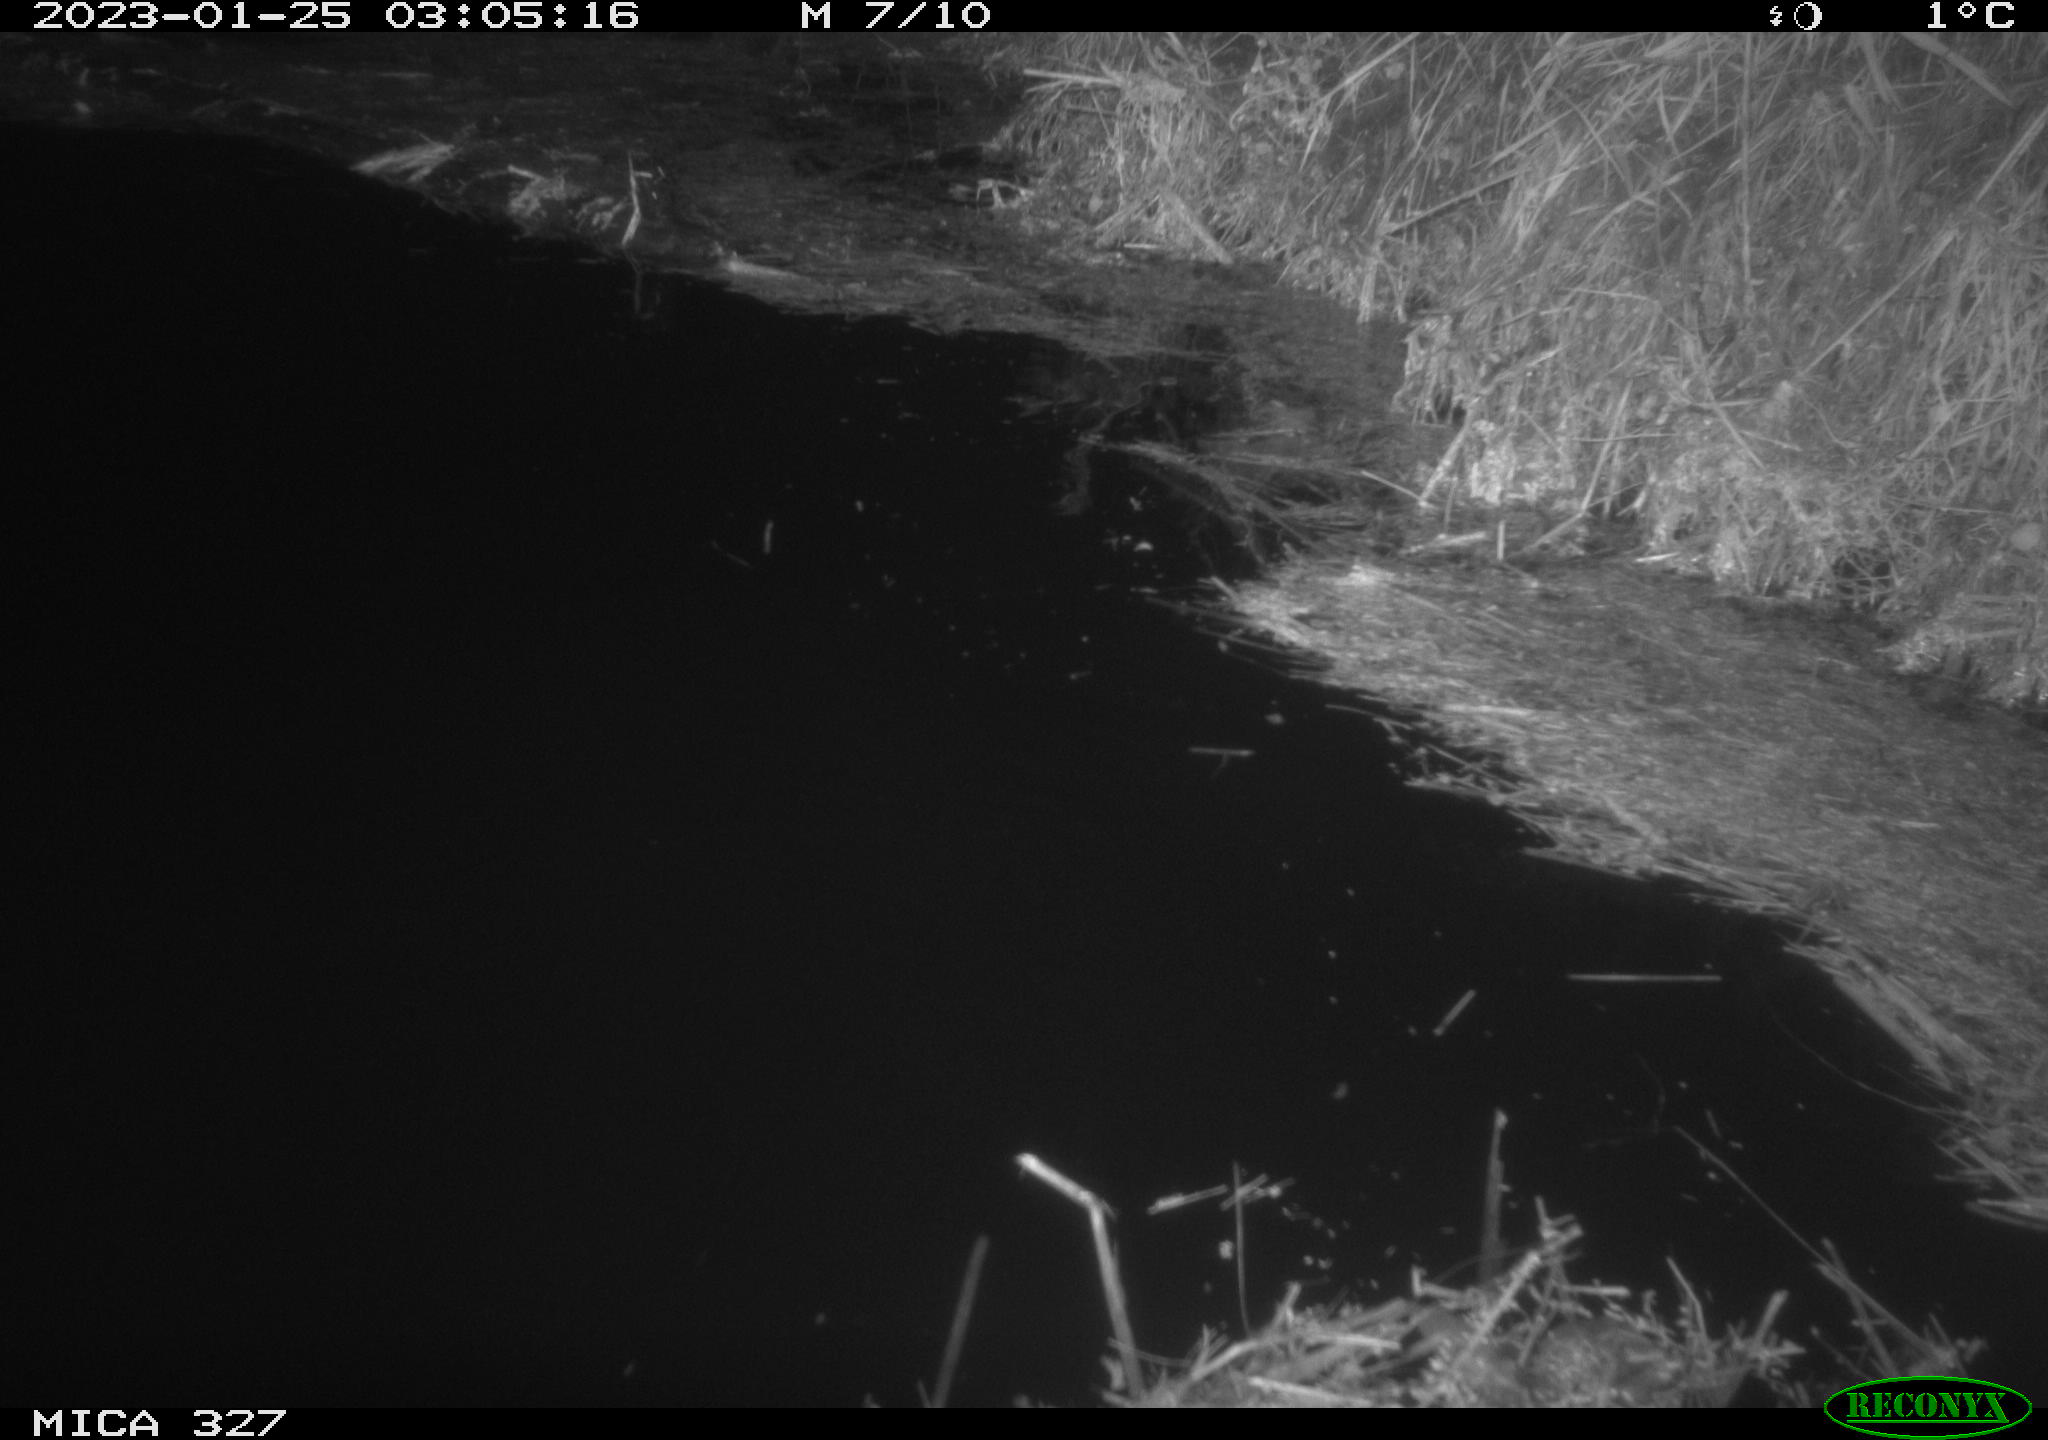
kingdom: Animalia
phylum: Chordata
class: Mammalia
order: Rodentia
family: Cricetidae
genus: Ondatra
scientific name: Ondatra zibethicus
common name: Muskrat
